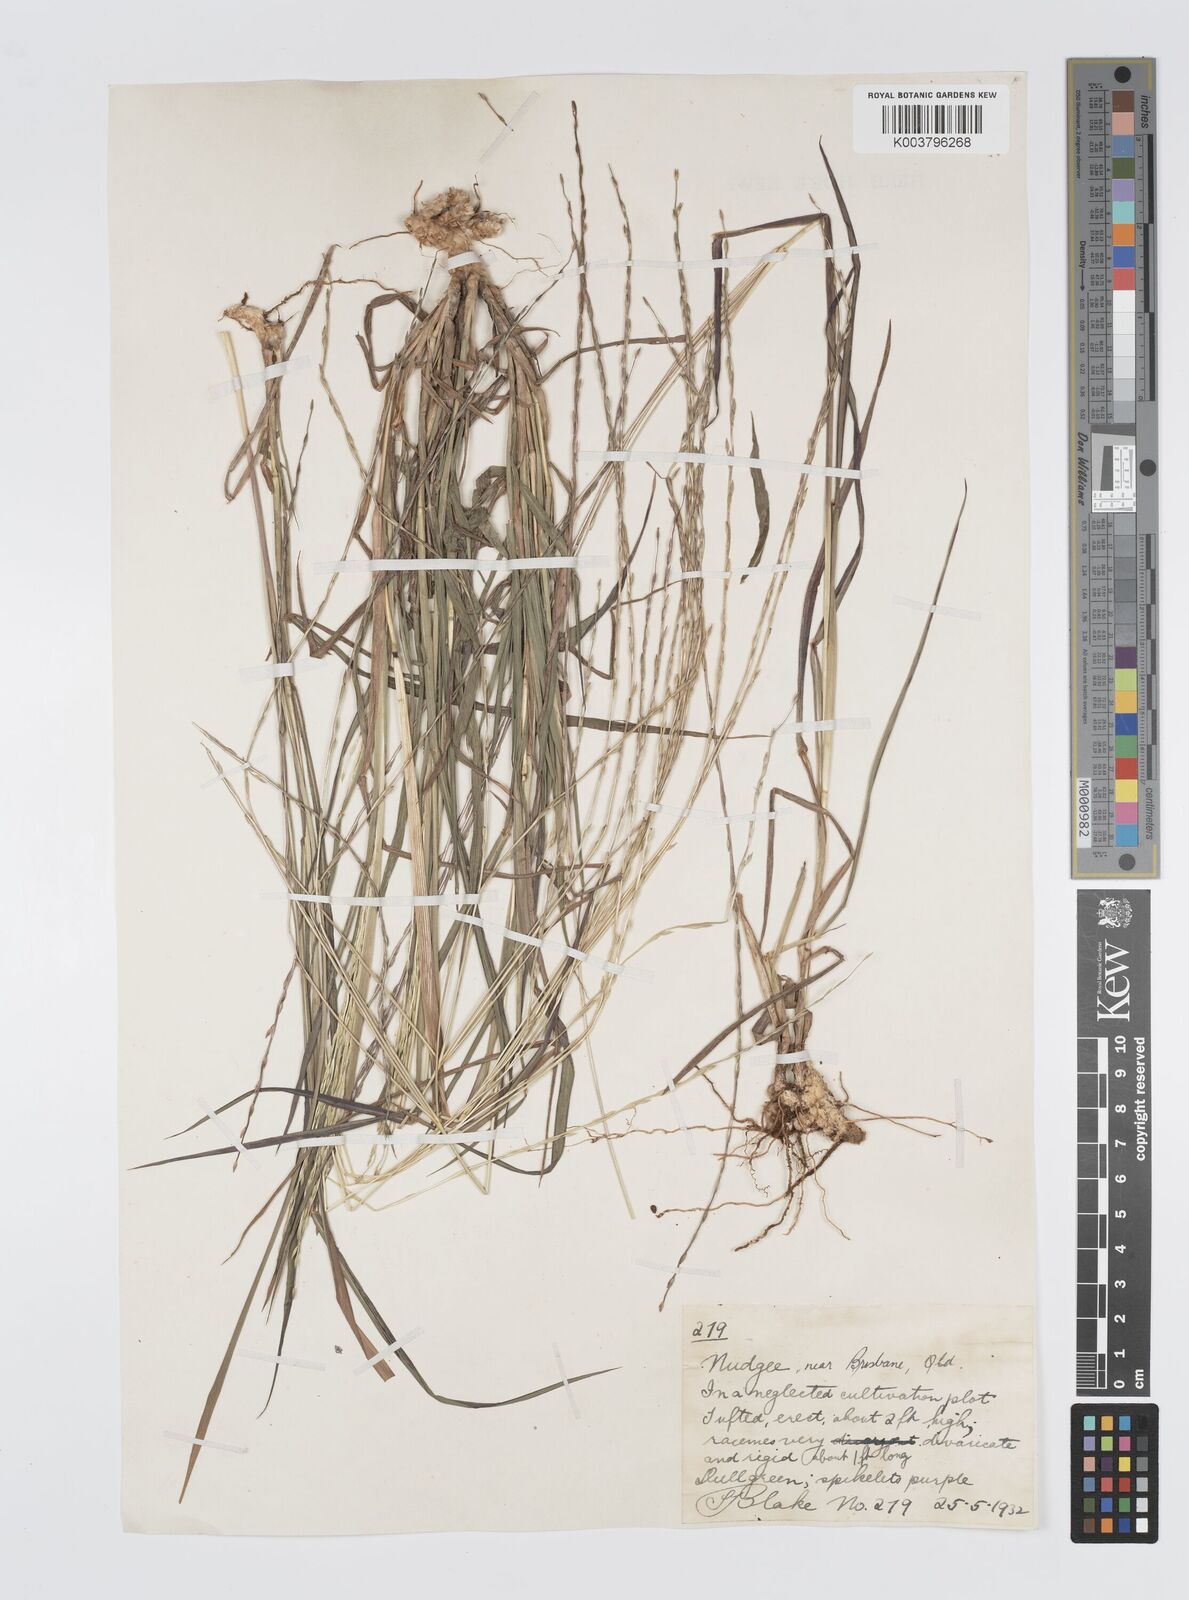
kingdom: Plantae
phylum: Tracheophyta
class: Liliopsida
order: Poales
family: Poaceae
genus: Digitaria
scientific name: Digitaria divaricatissima
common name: Crabgrass
